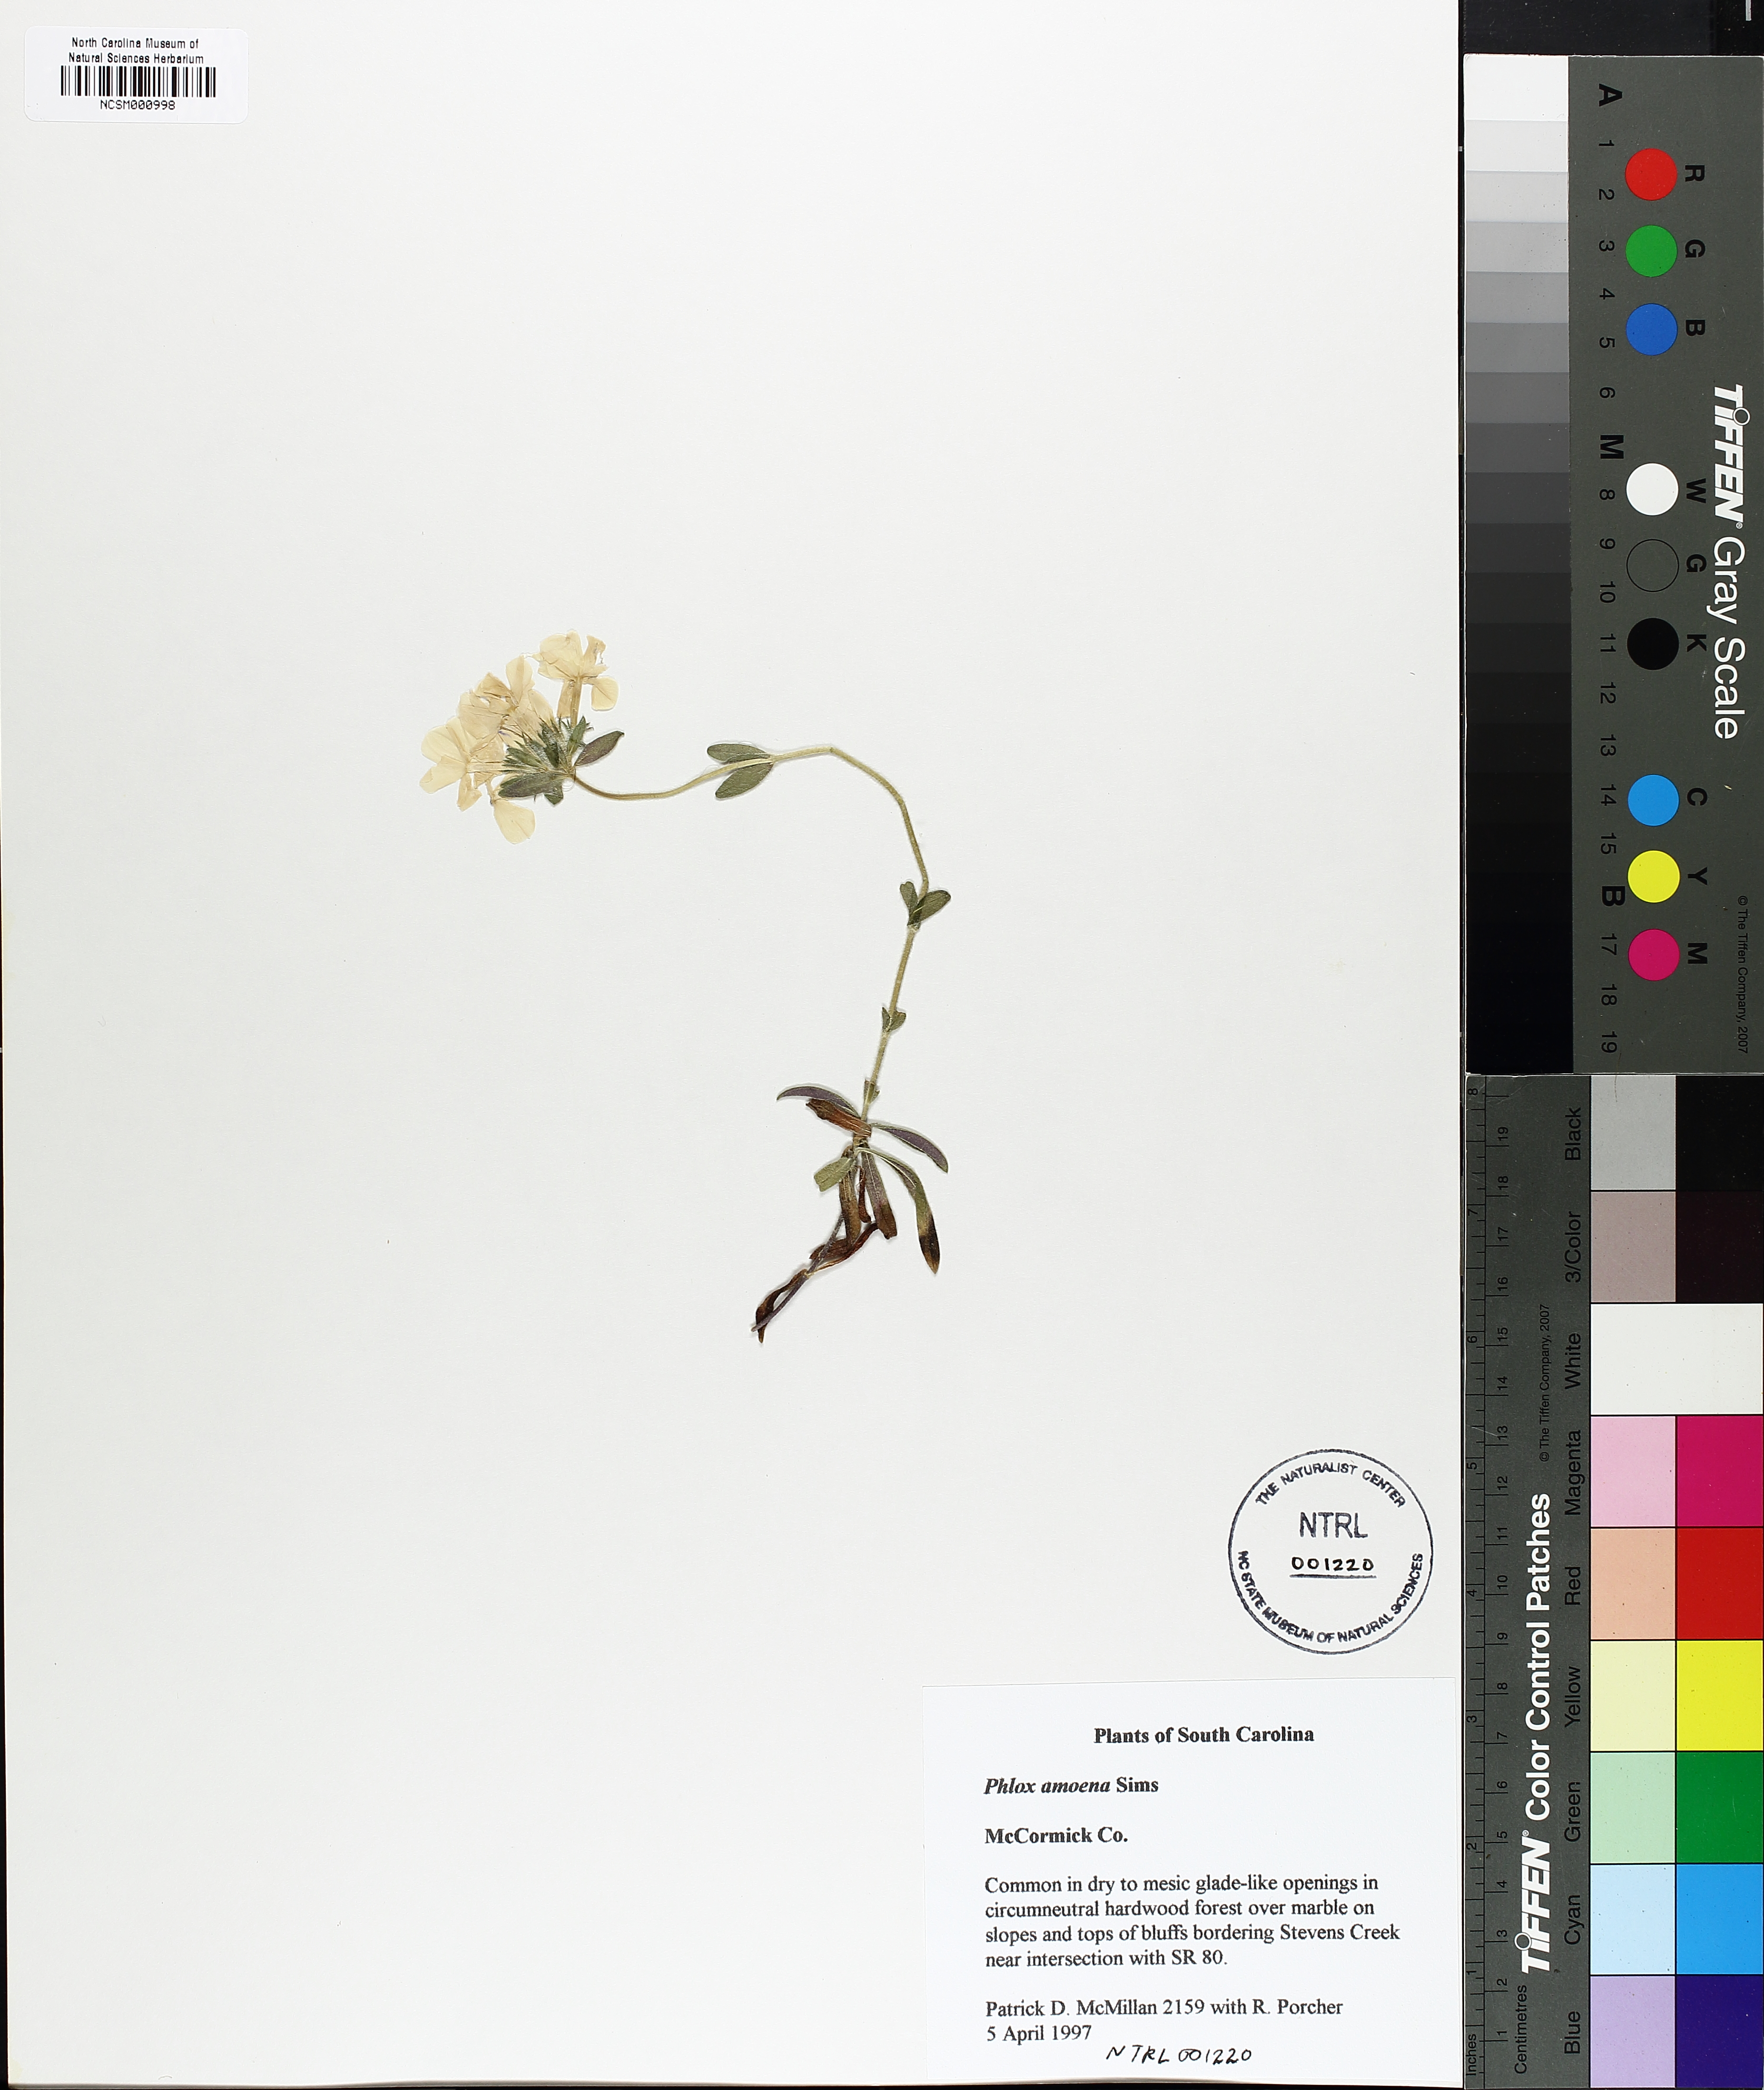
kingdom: Plantae
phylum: Tracheophyta
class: Magnoliopsida
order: Ericales
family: Polemoniaceae
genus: Phlox
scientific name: Phlox amoena
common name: Hairy phlox
